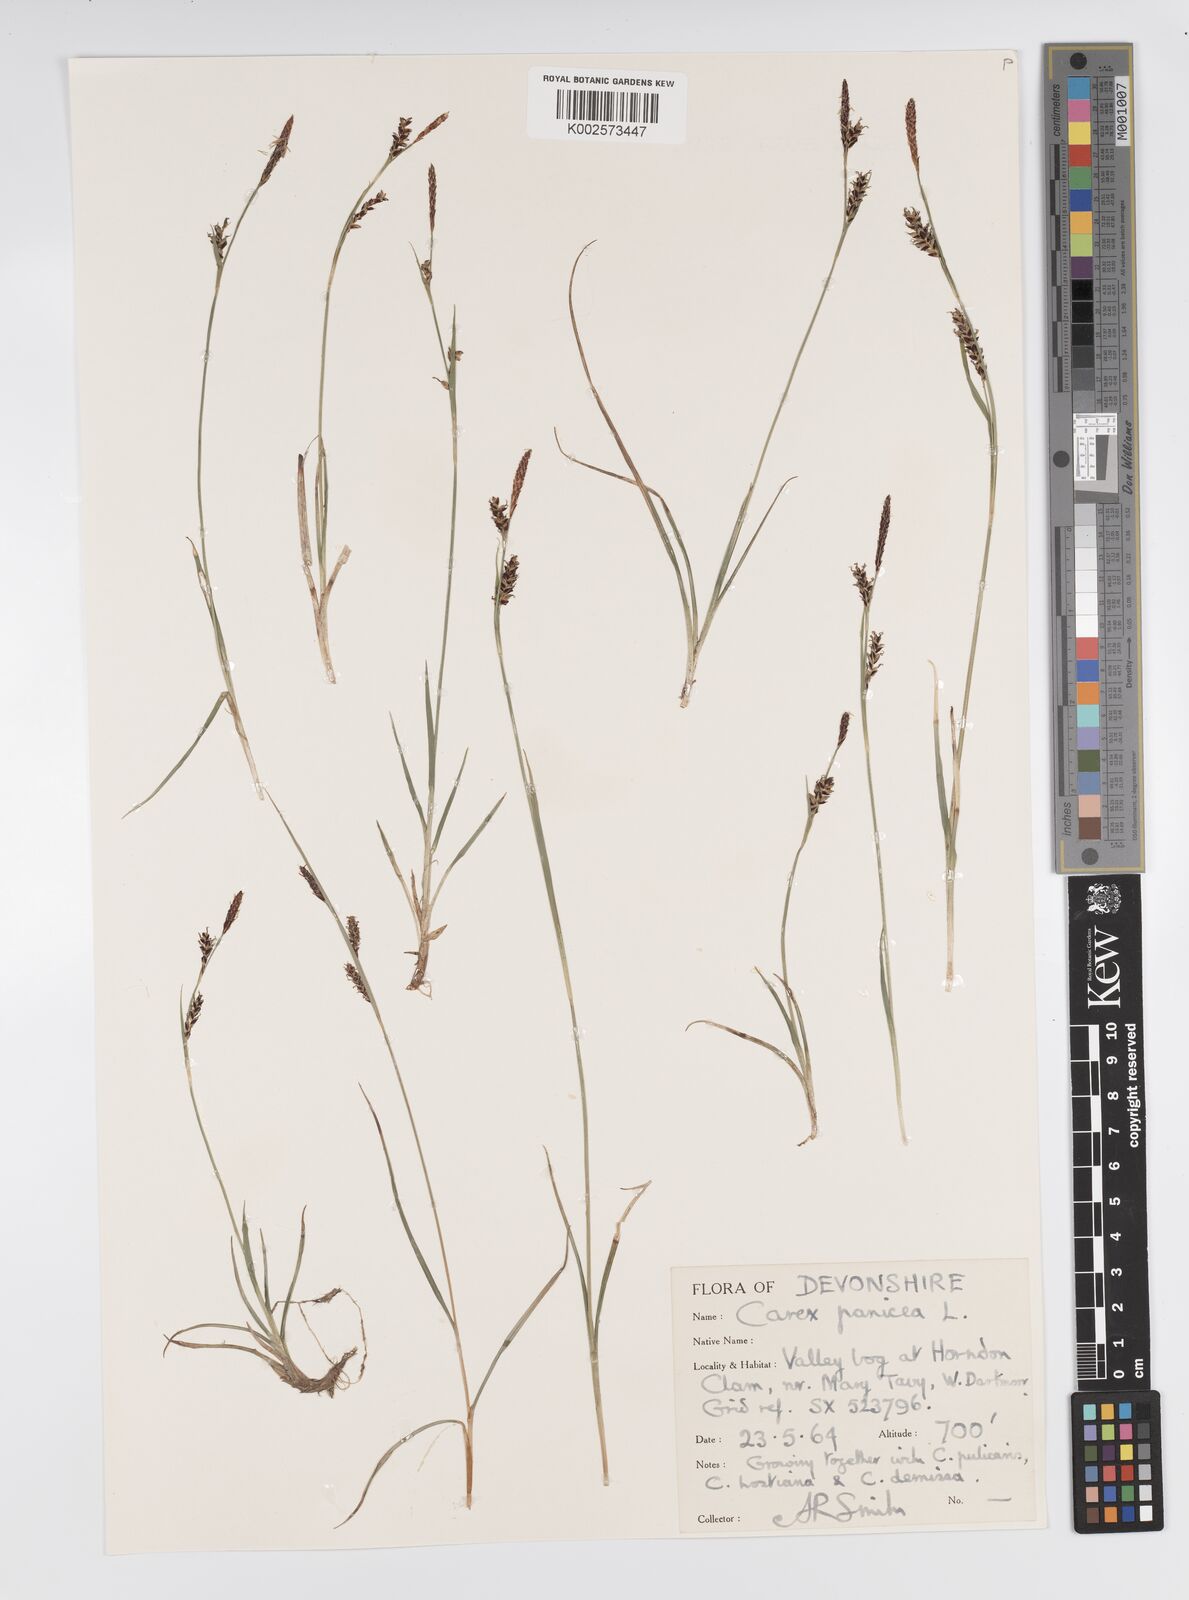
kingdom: Plantae
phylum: Tracheophyta
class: Liliopsida
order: Poales
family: Cyperaceae
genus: Carex
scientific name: Carex panicea
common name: Carnation sedge
